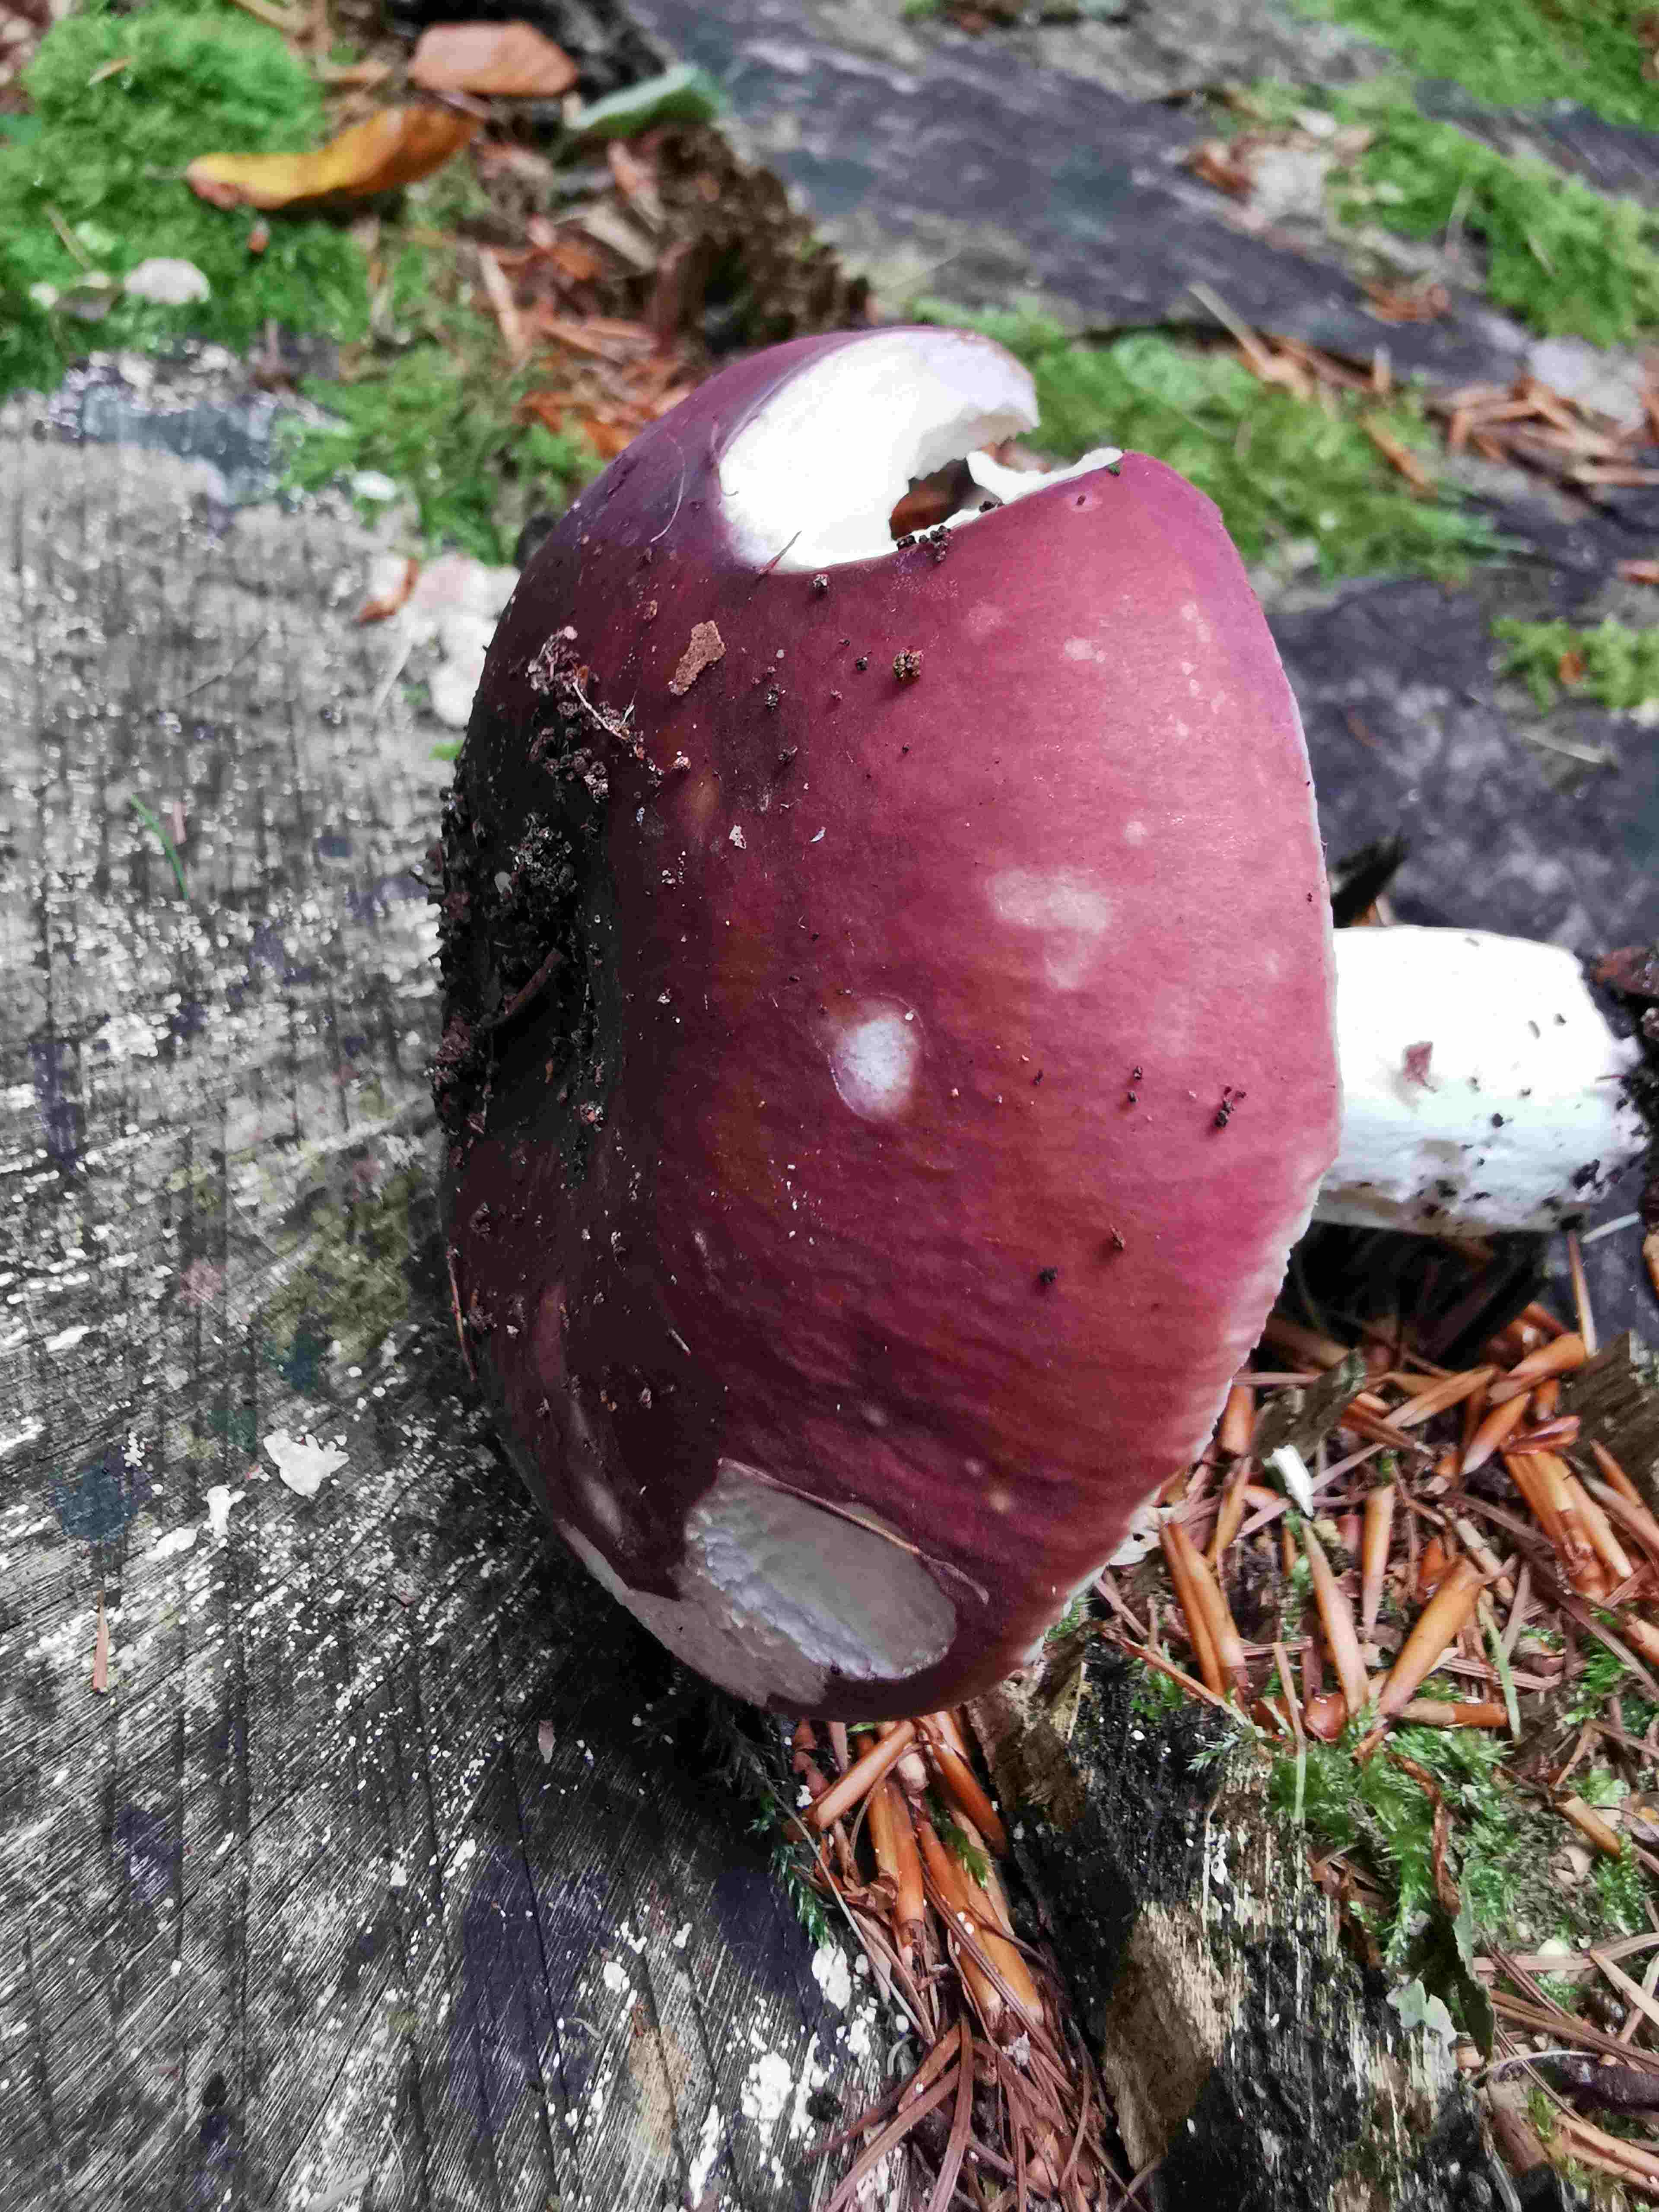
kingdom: Fungi
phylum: Basidiomycota
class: Agaricomycetes
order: Russulales
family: Russulaceae
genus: Russula
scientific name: Russula
